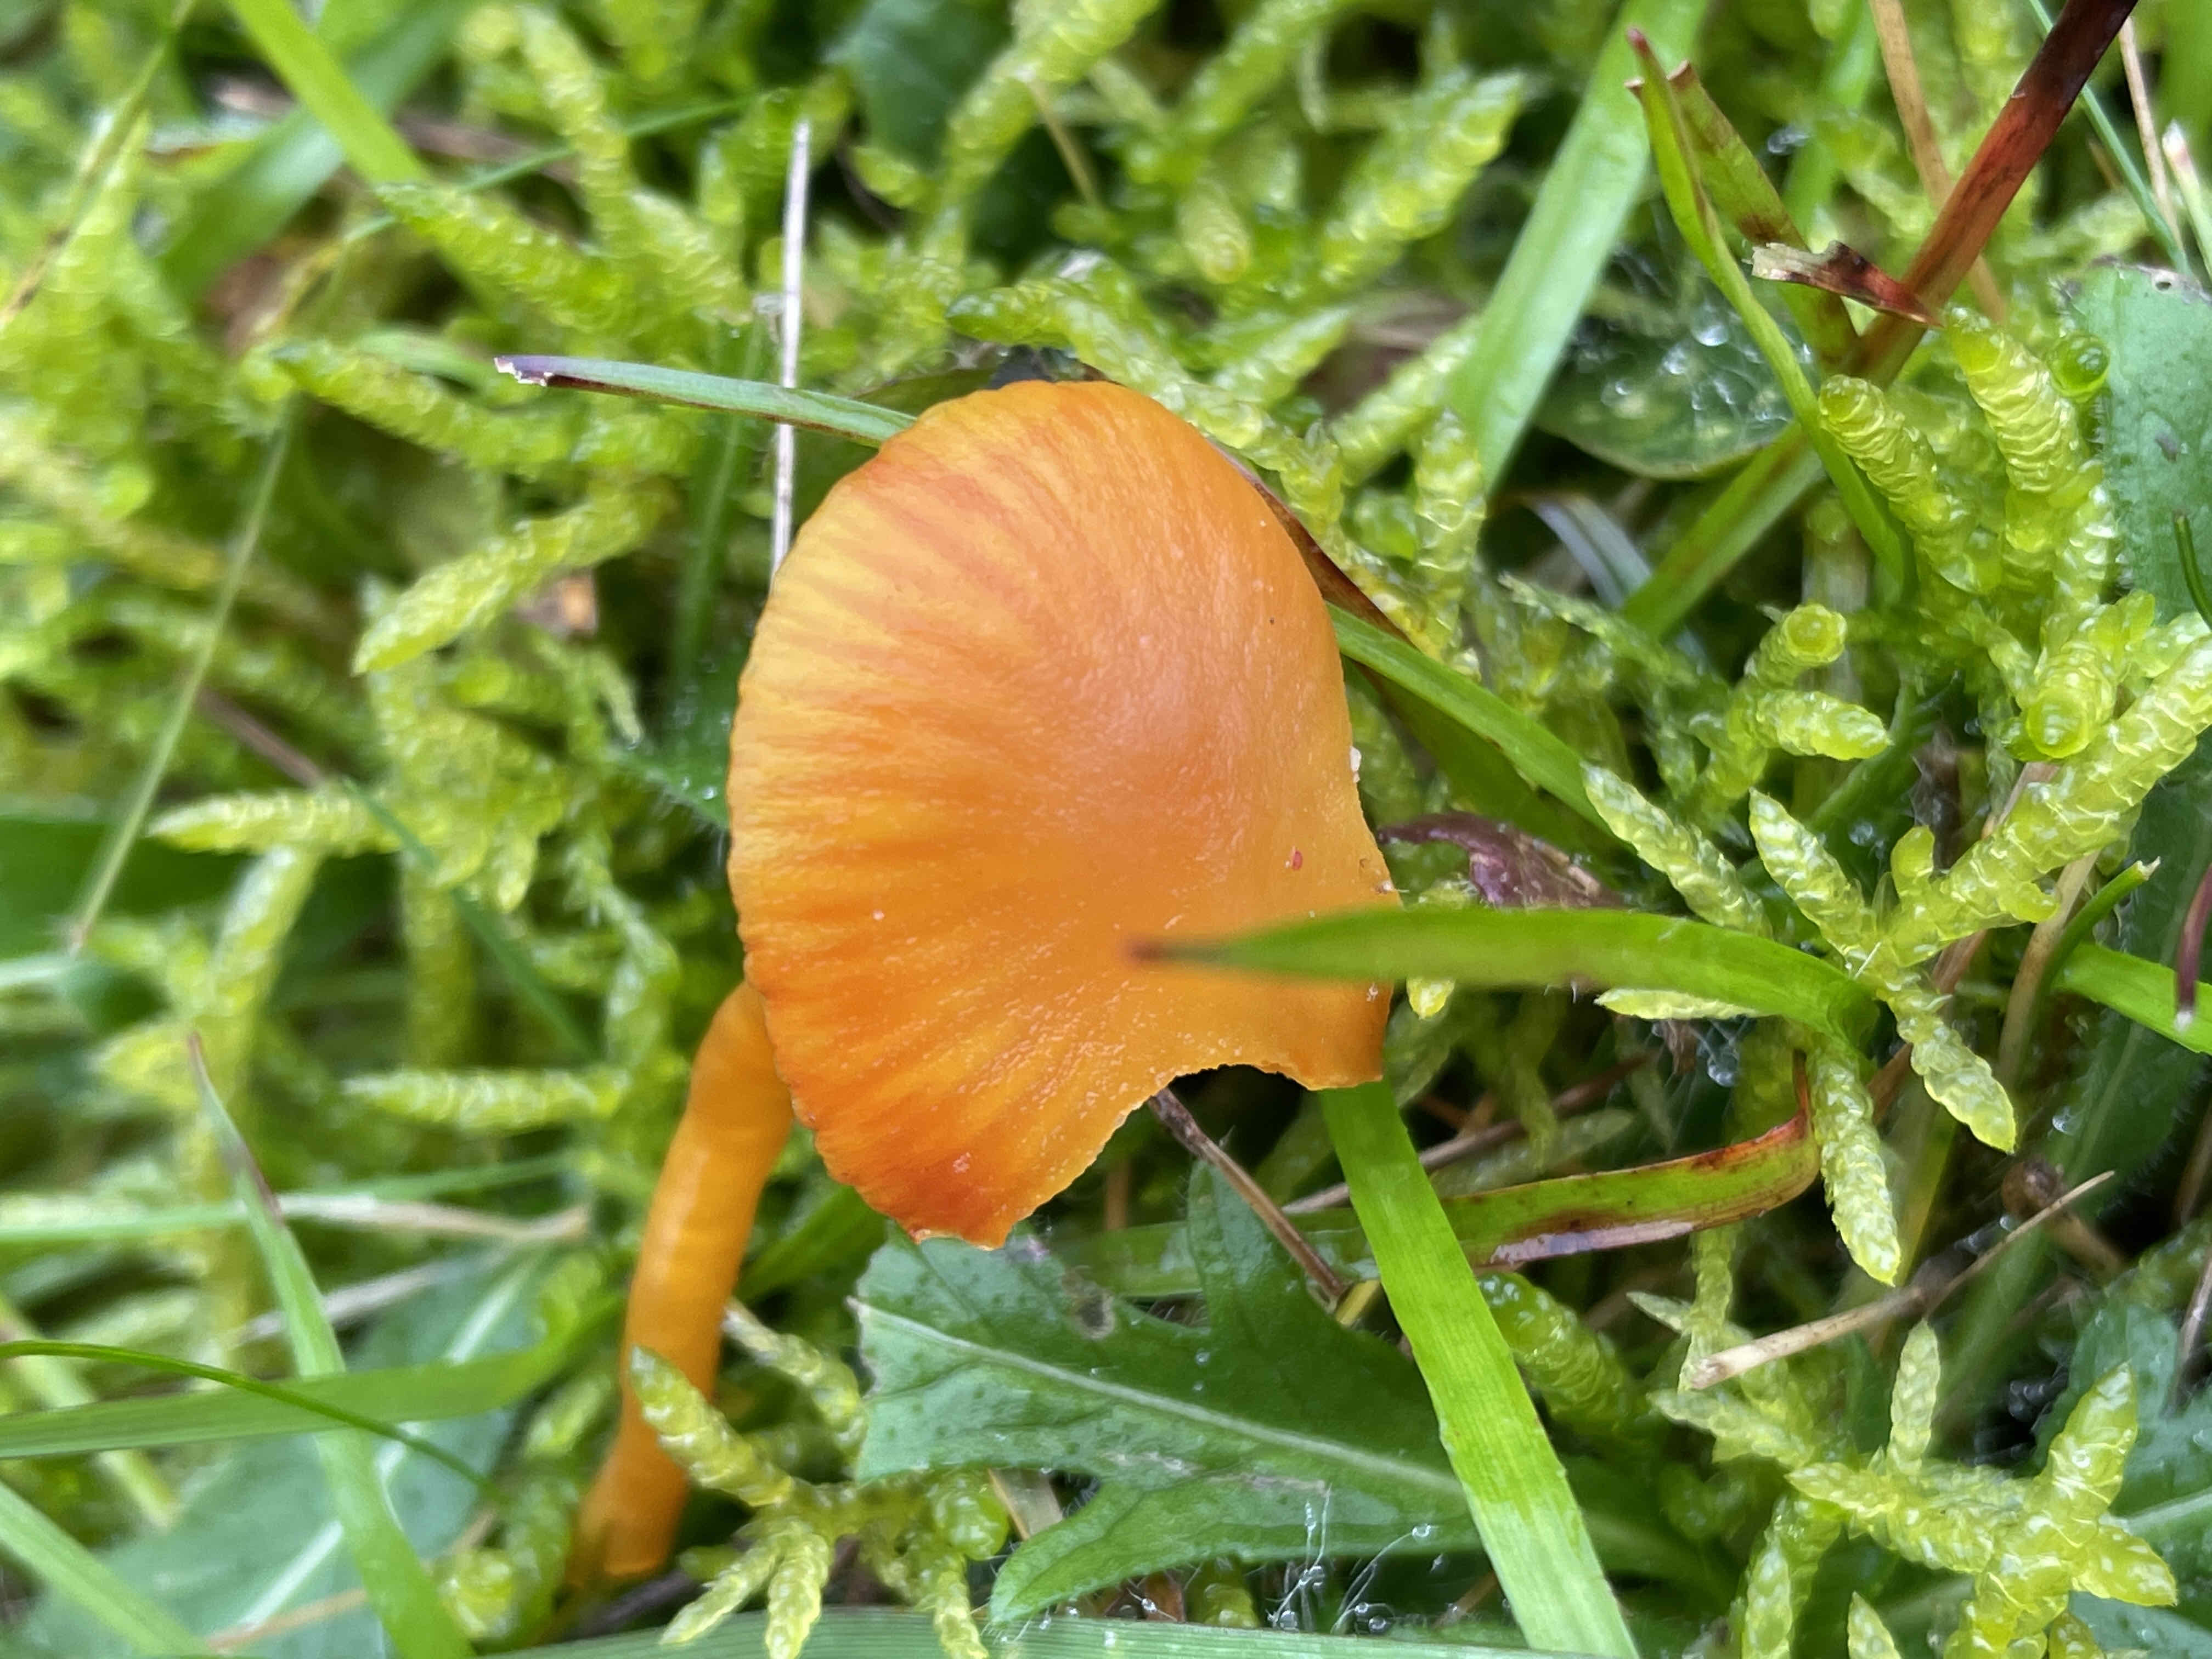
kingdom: Fungi
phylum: Basidiomycota
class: Agaricomycetes
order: Agaricales
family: Hygrophoraceae
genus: Hygrocybe
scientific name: Hygrocybe insipida
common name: liden vokshat
